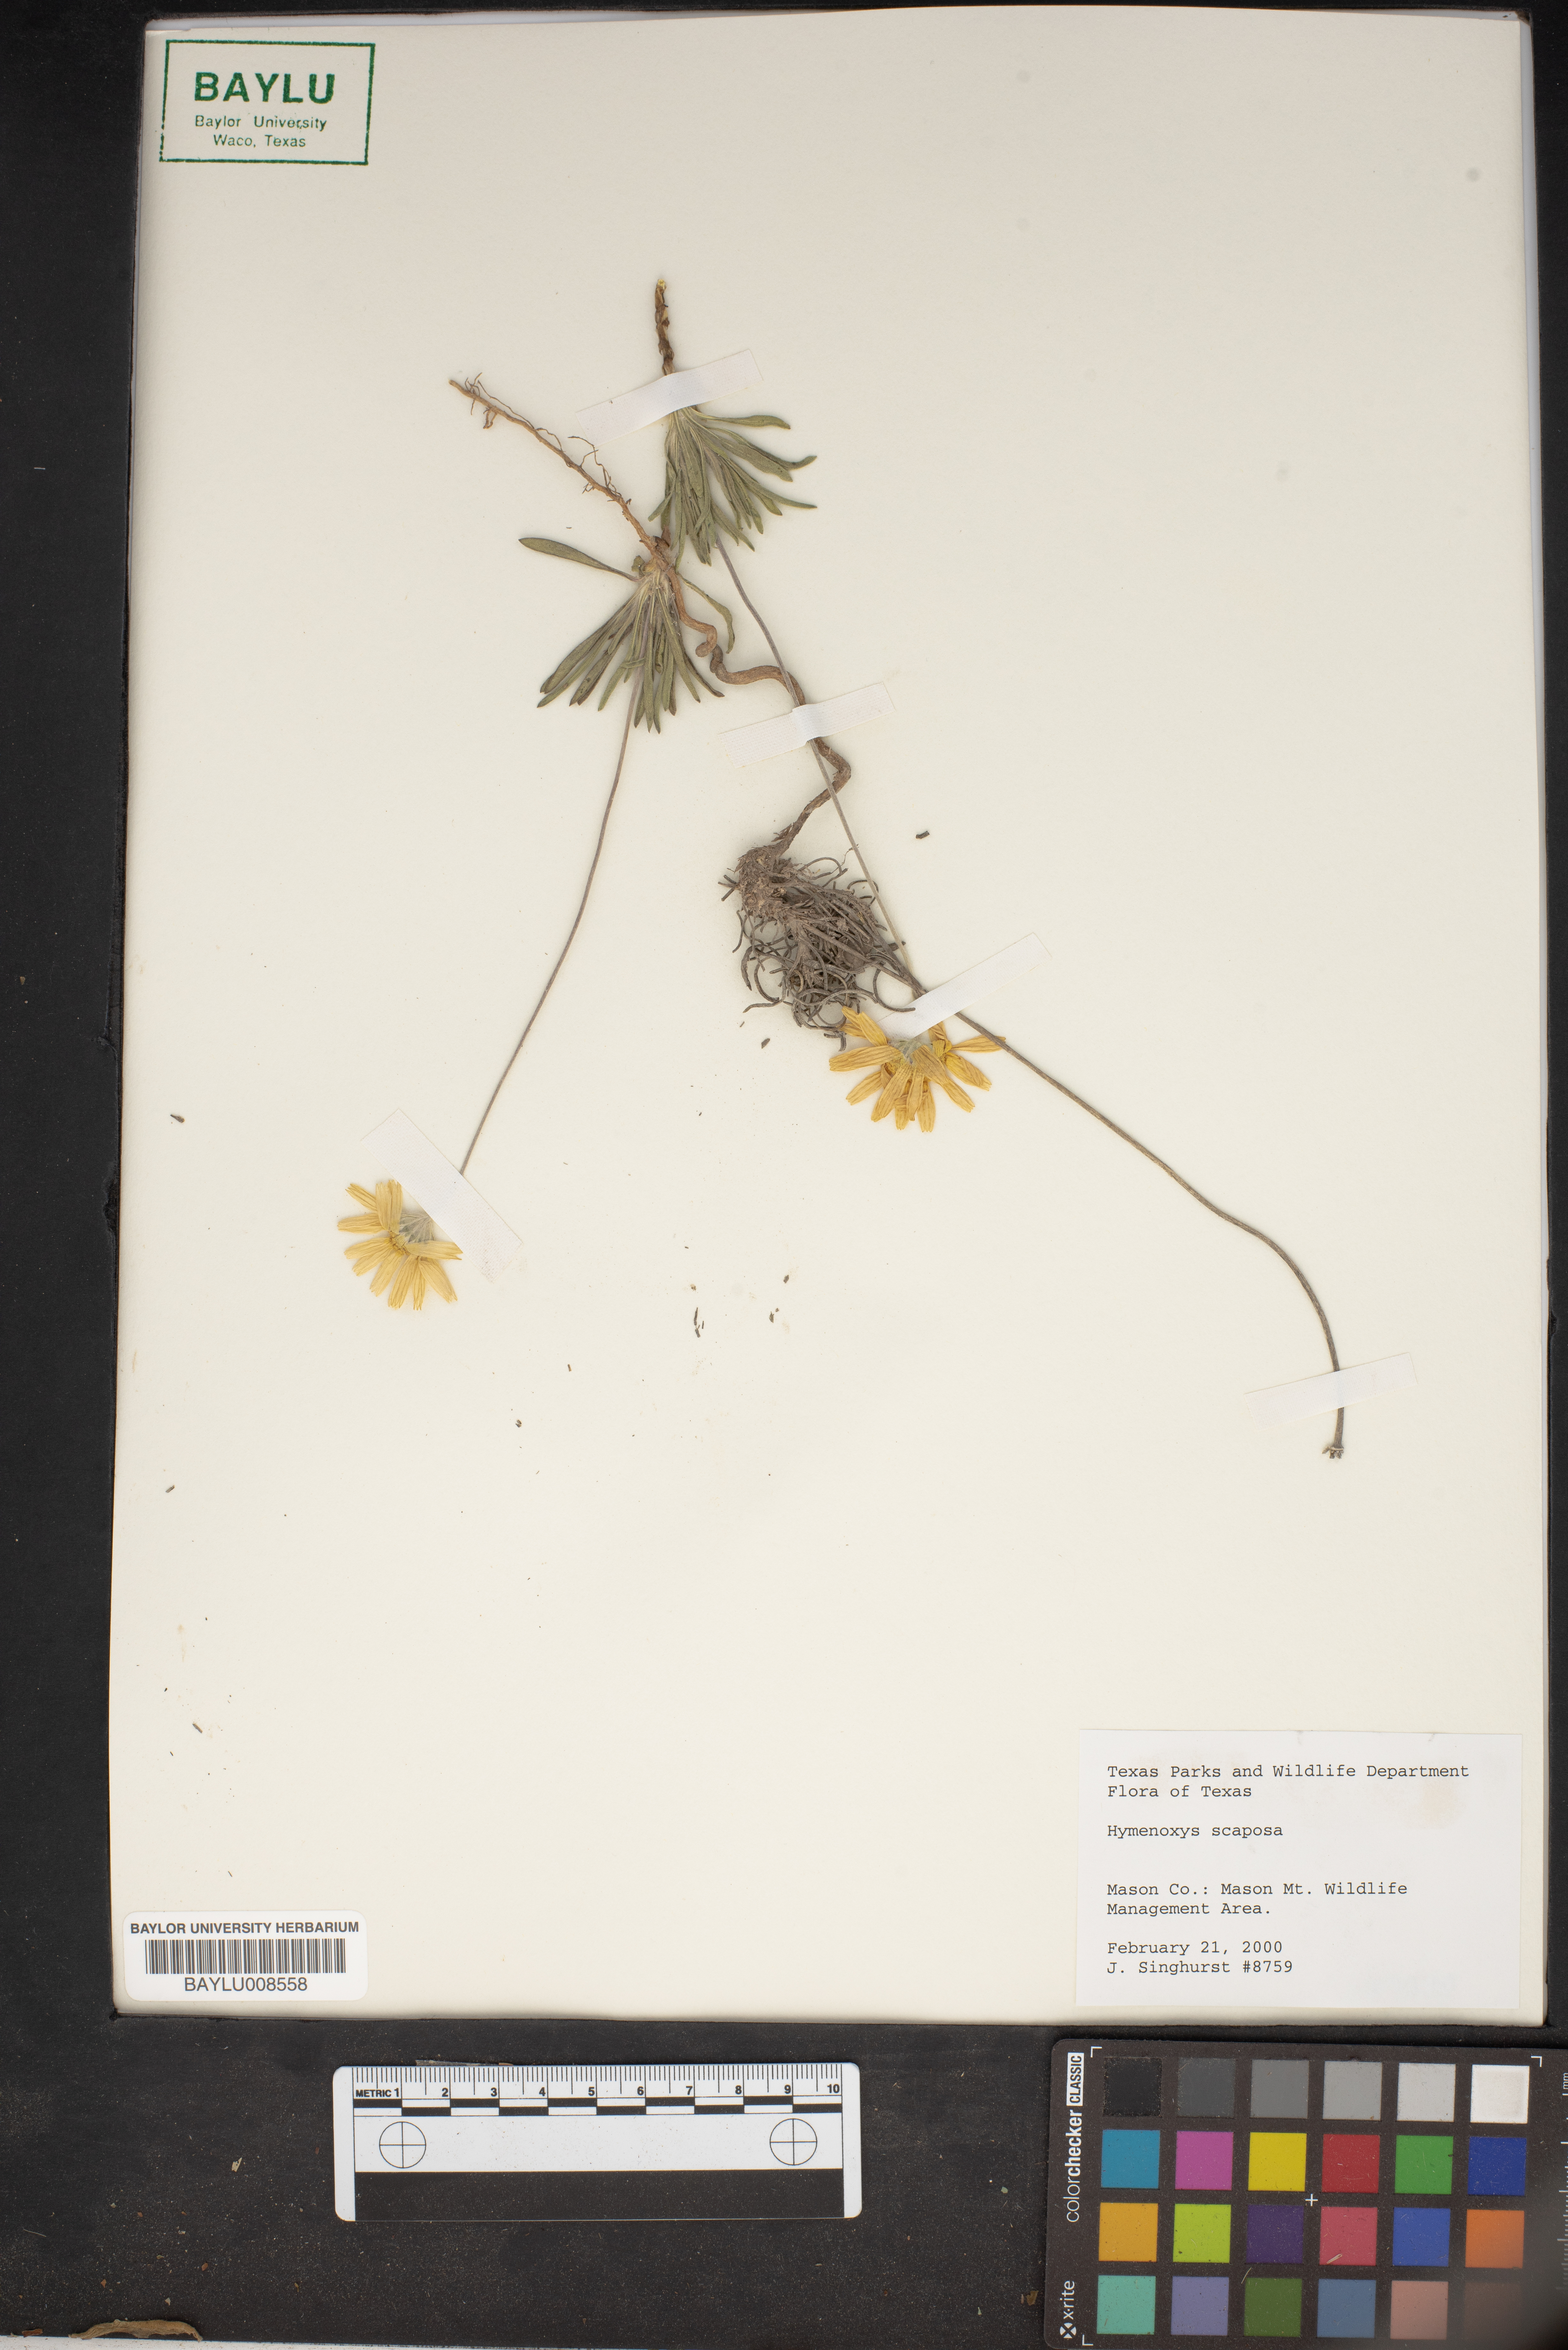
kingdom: Plantae
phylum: Tracheophyta
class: Magnoliopsida
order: Asterales
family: Asteraceae
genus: Tetraneuris
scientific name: Tetraneuris scaposa
